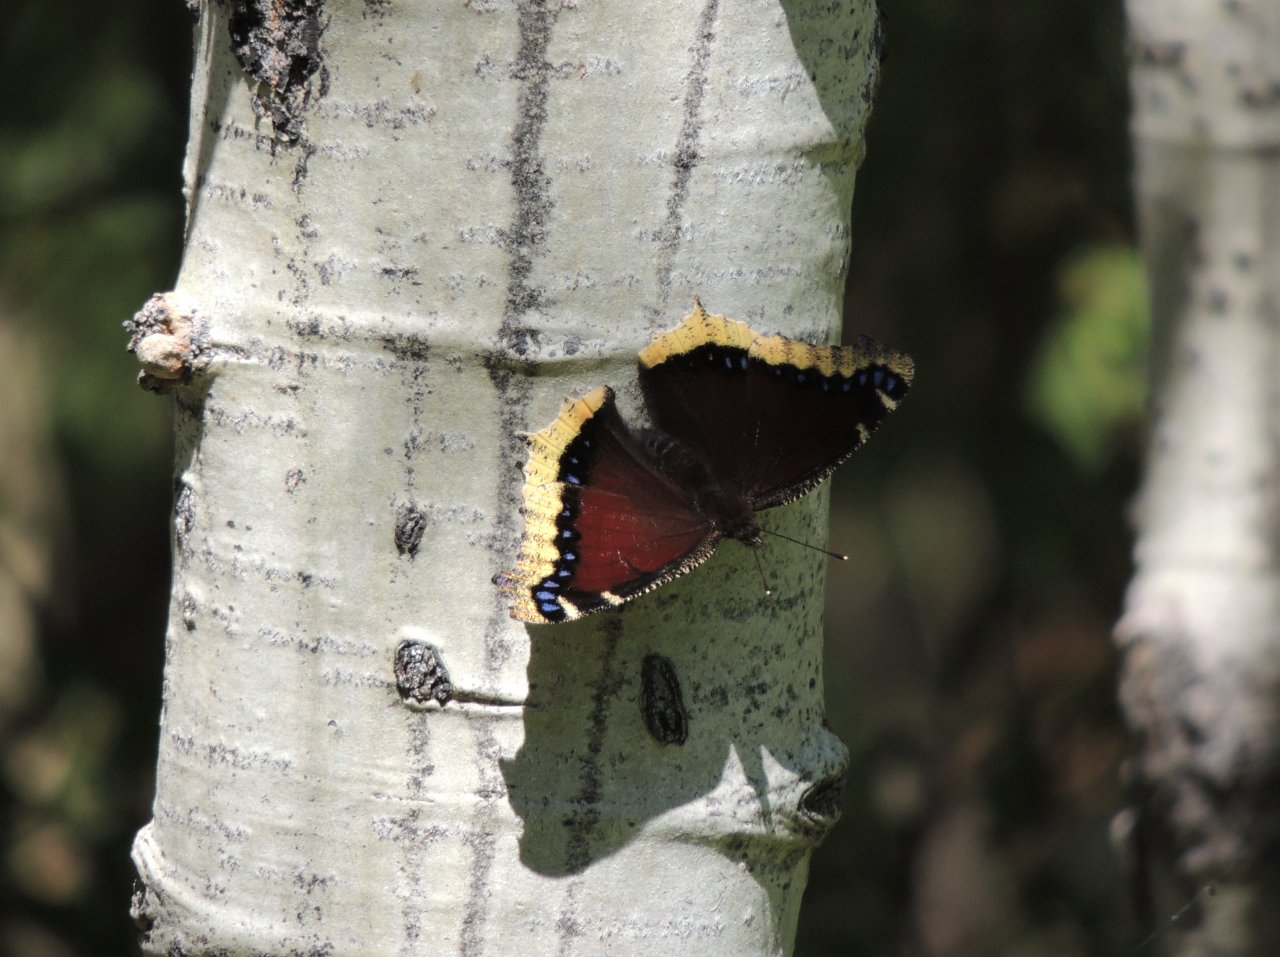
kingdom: Animalia
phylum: Arthropoda
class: Insecta
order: Lepidoptera
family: Nymphalidae
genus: Nymphalis
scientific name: Nymphalis antiopa
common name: Mourning Cloak
